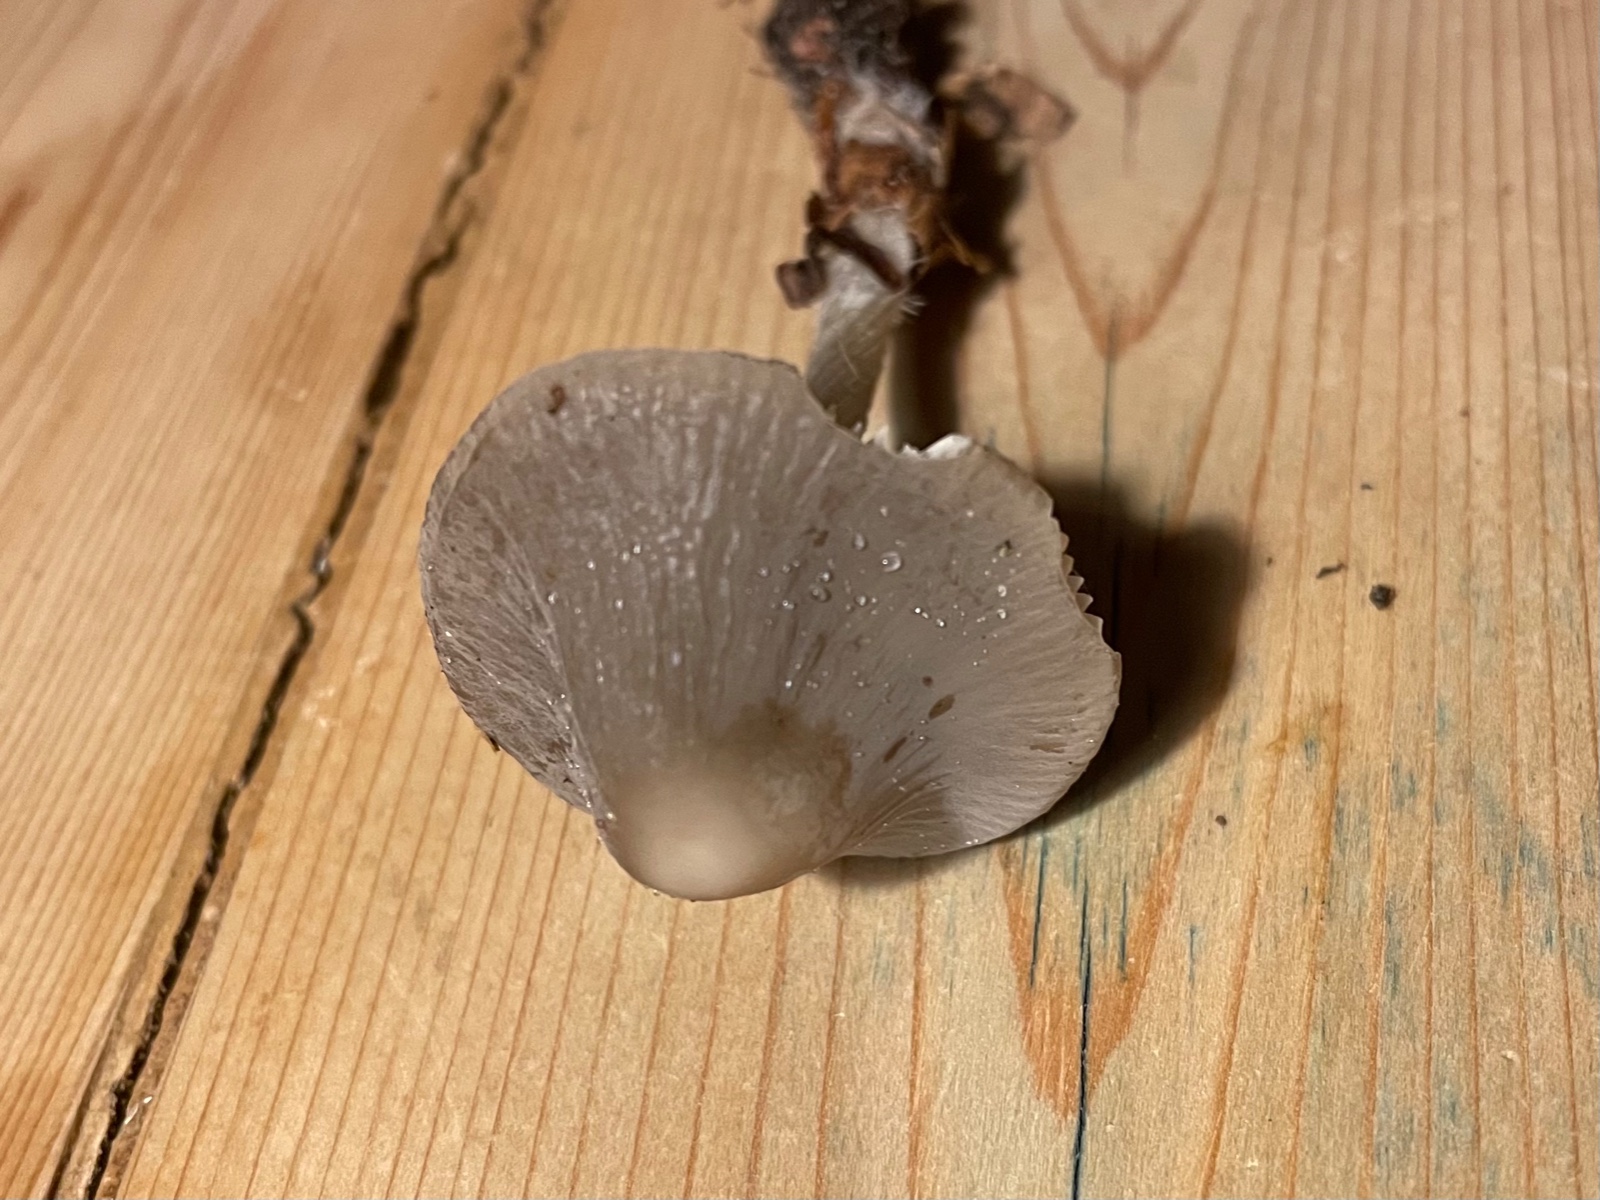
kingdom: Fungi
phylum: Basidiomycota
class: Agaricomycetes
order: Agaricales
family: Mycenaceae
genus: Mycena
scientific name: Mycena
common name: huesvamp
